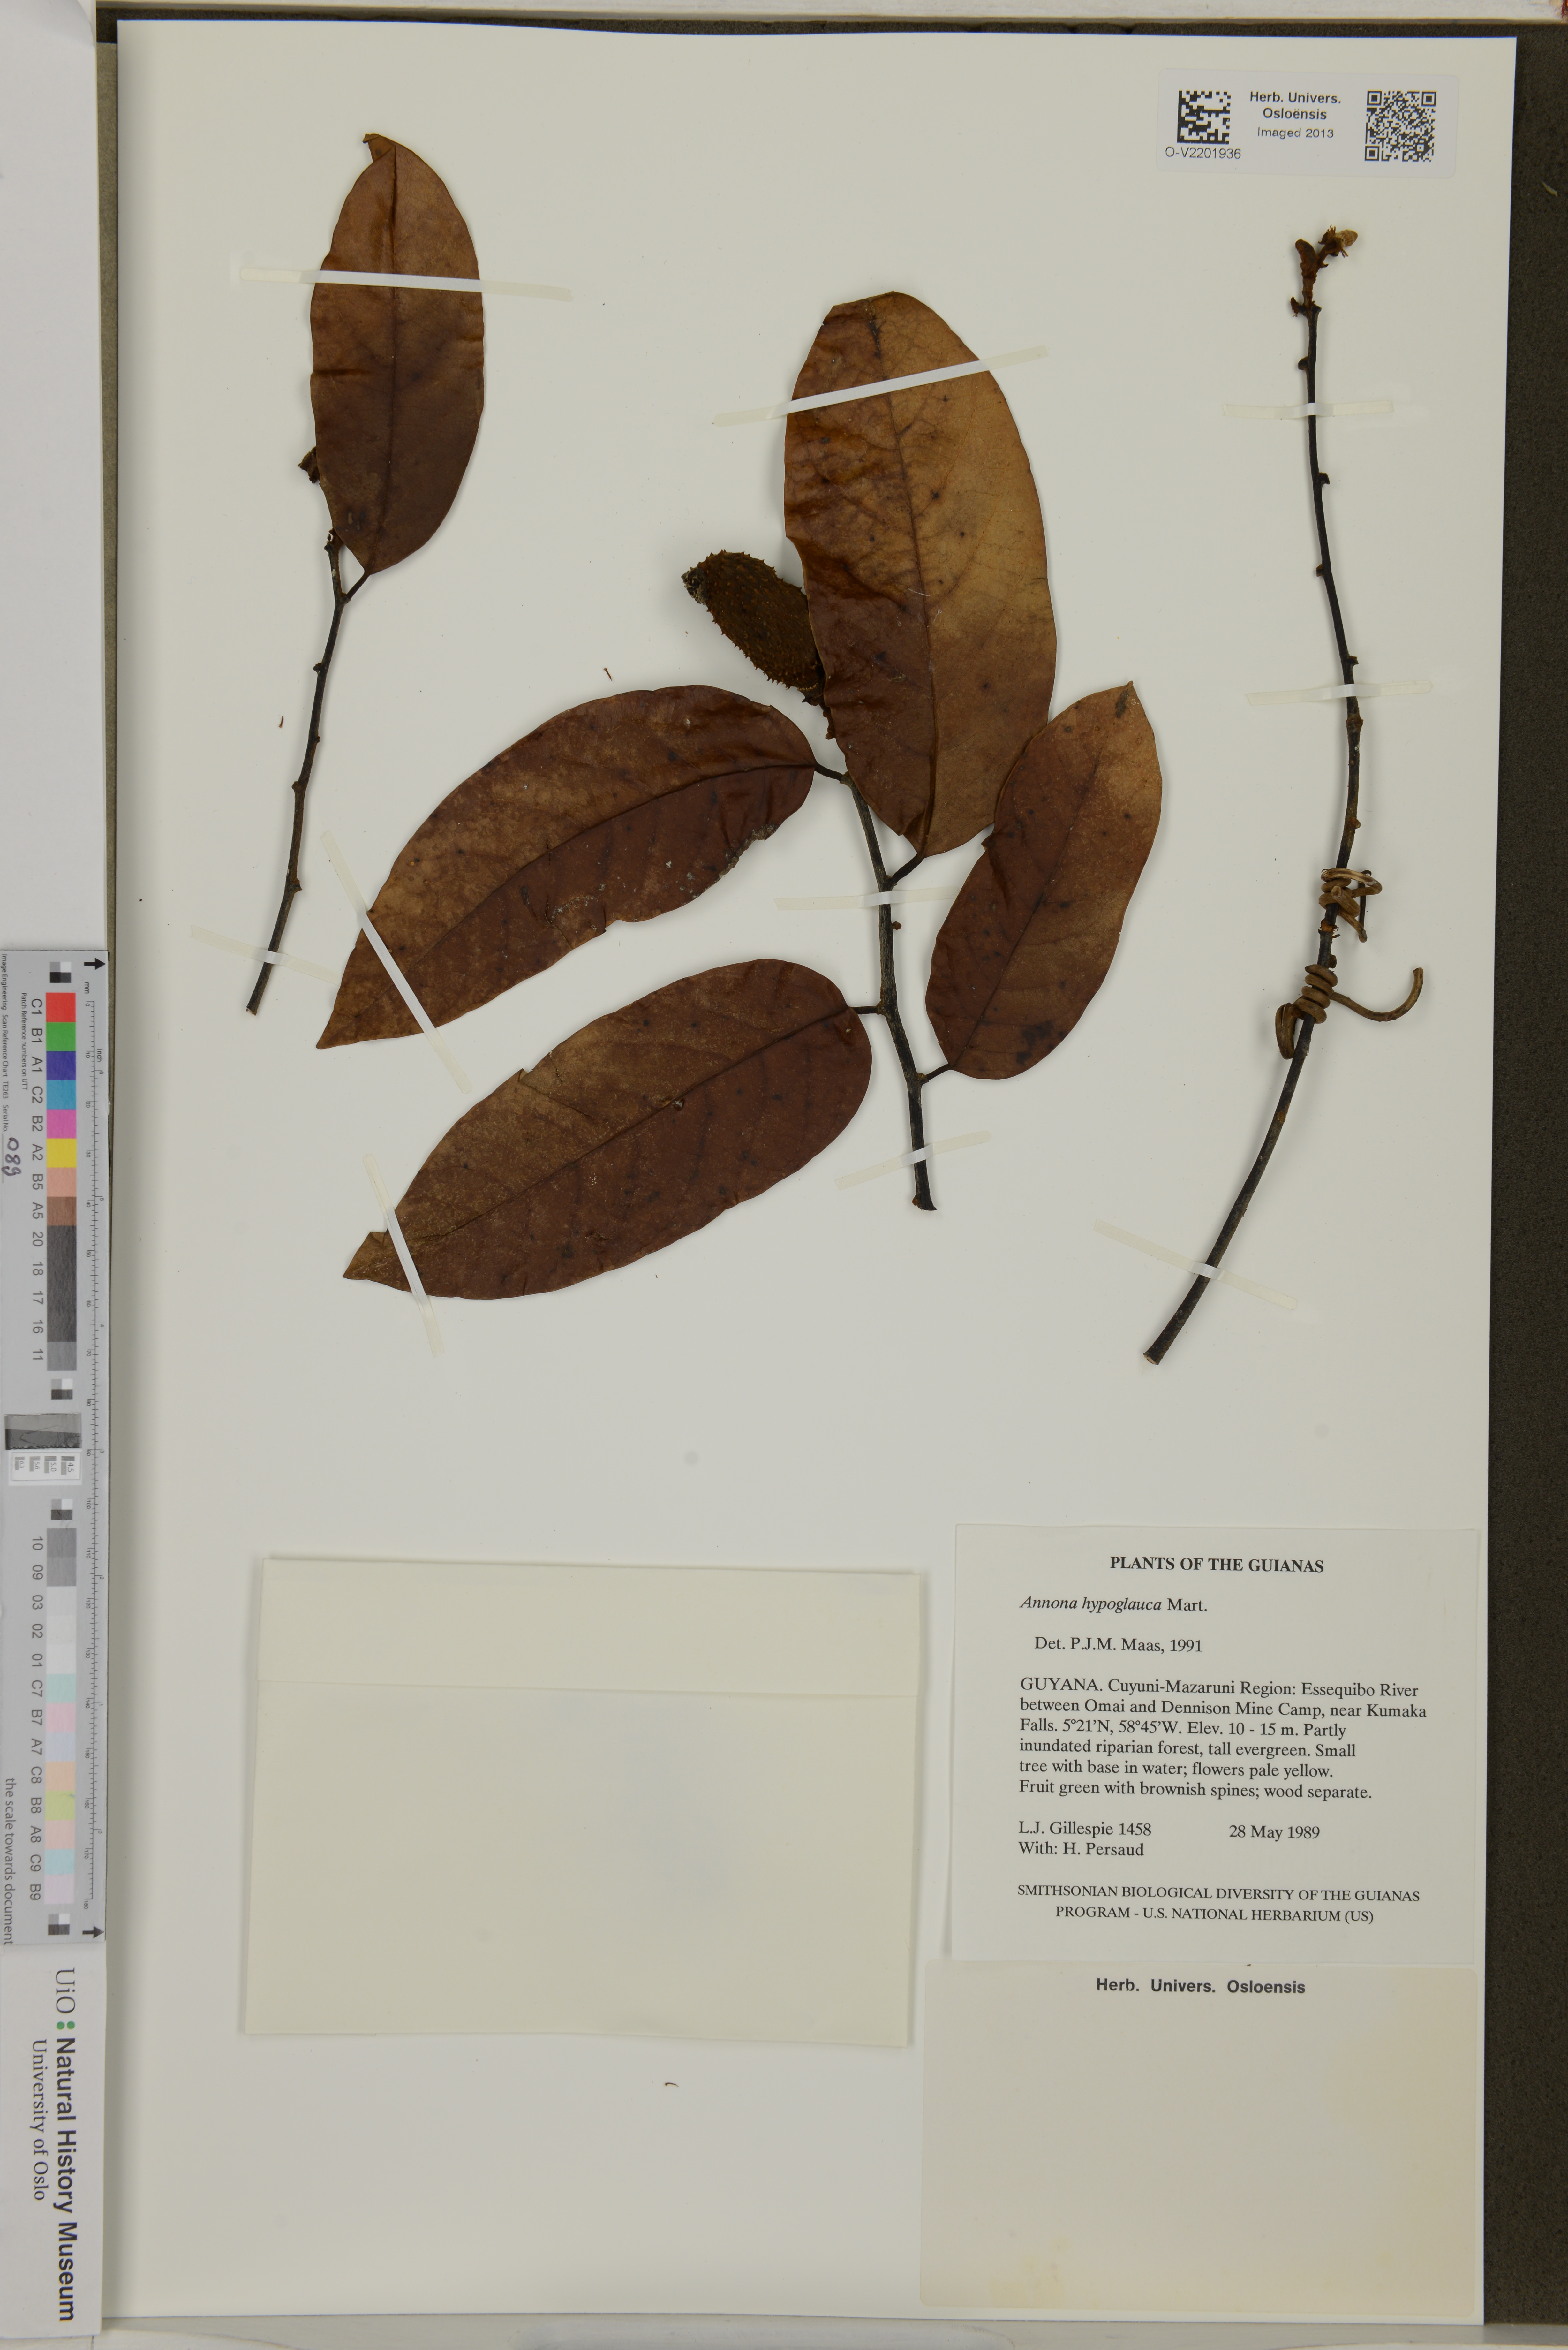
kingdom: Plantae
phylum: Tracheophyta
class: Magnoliopsida
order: Magnoliales
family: Annonaceae
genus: Annona
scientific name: Annona hypoglauca
